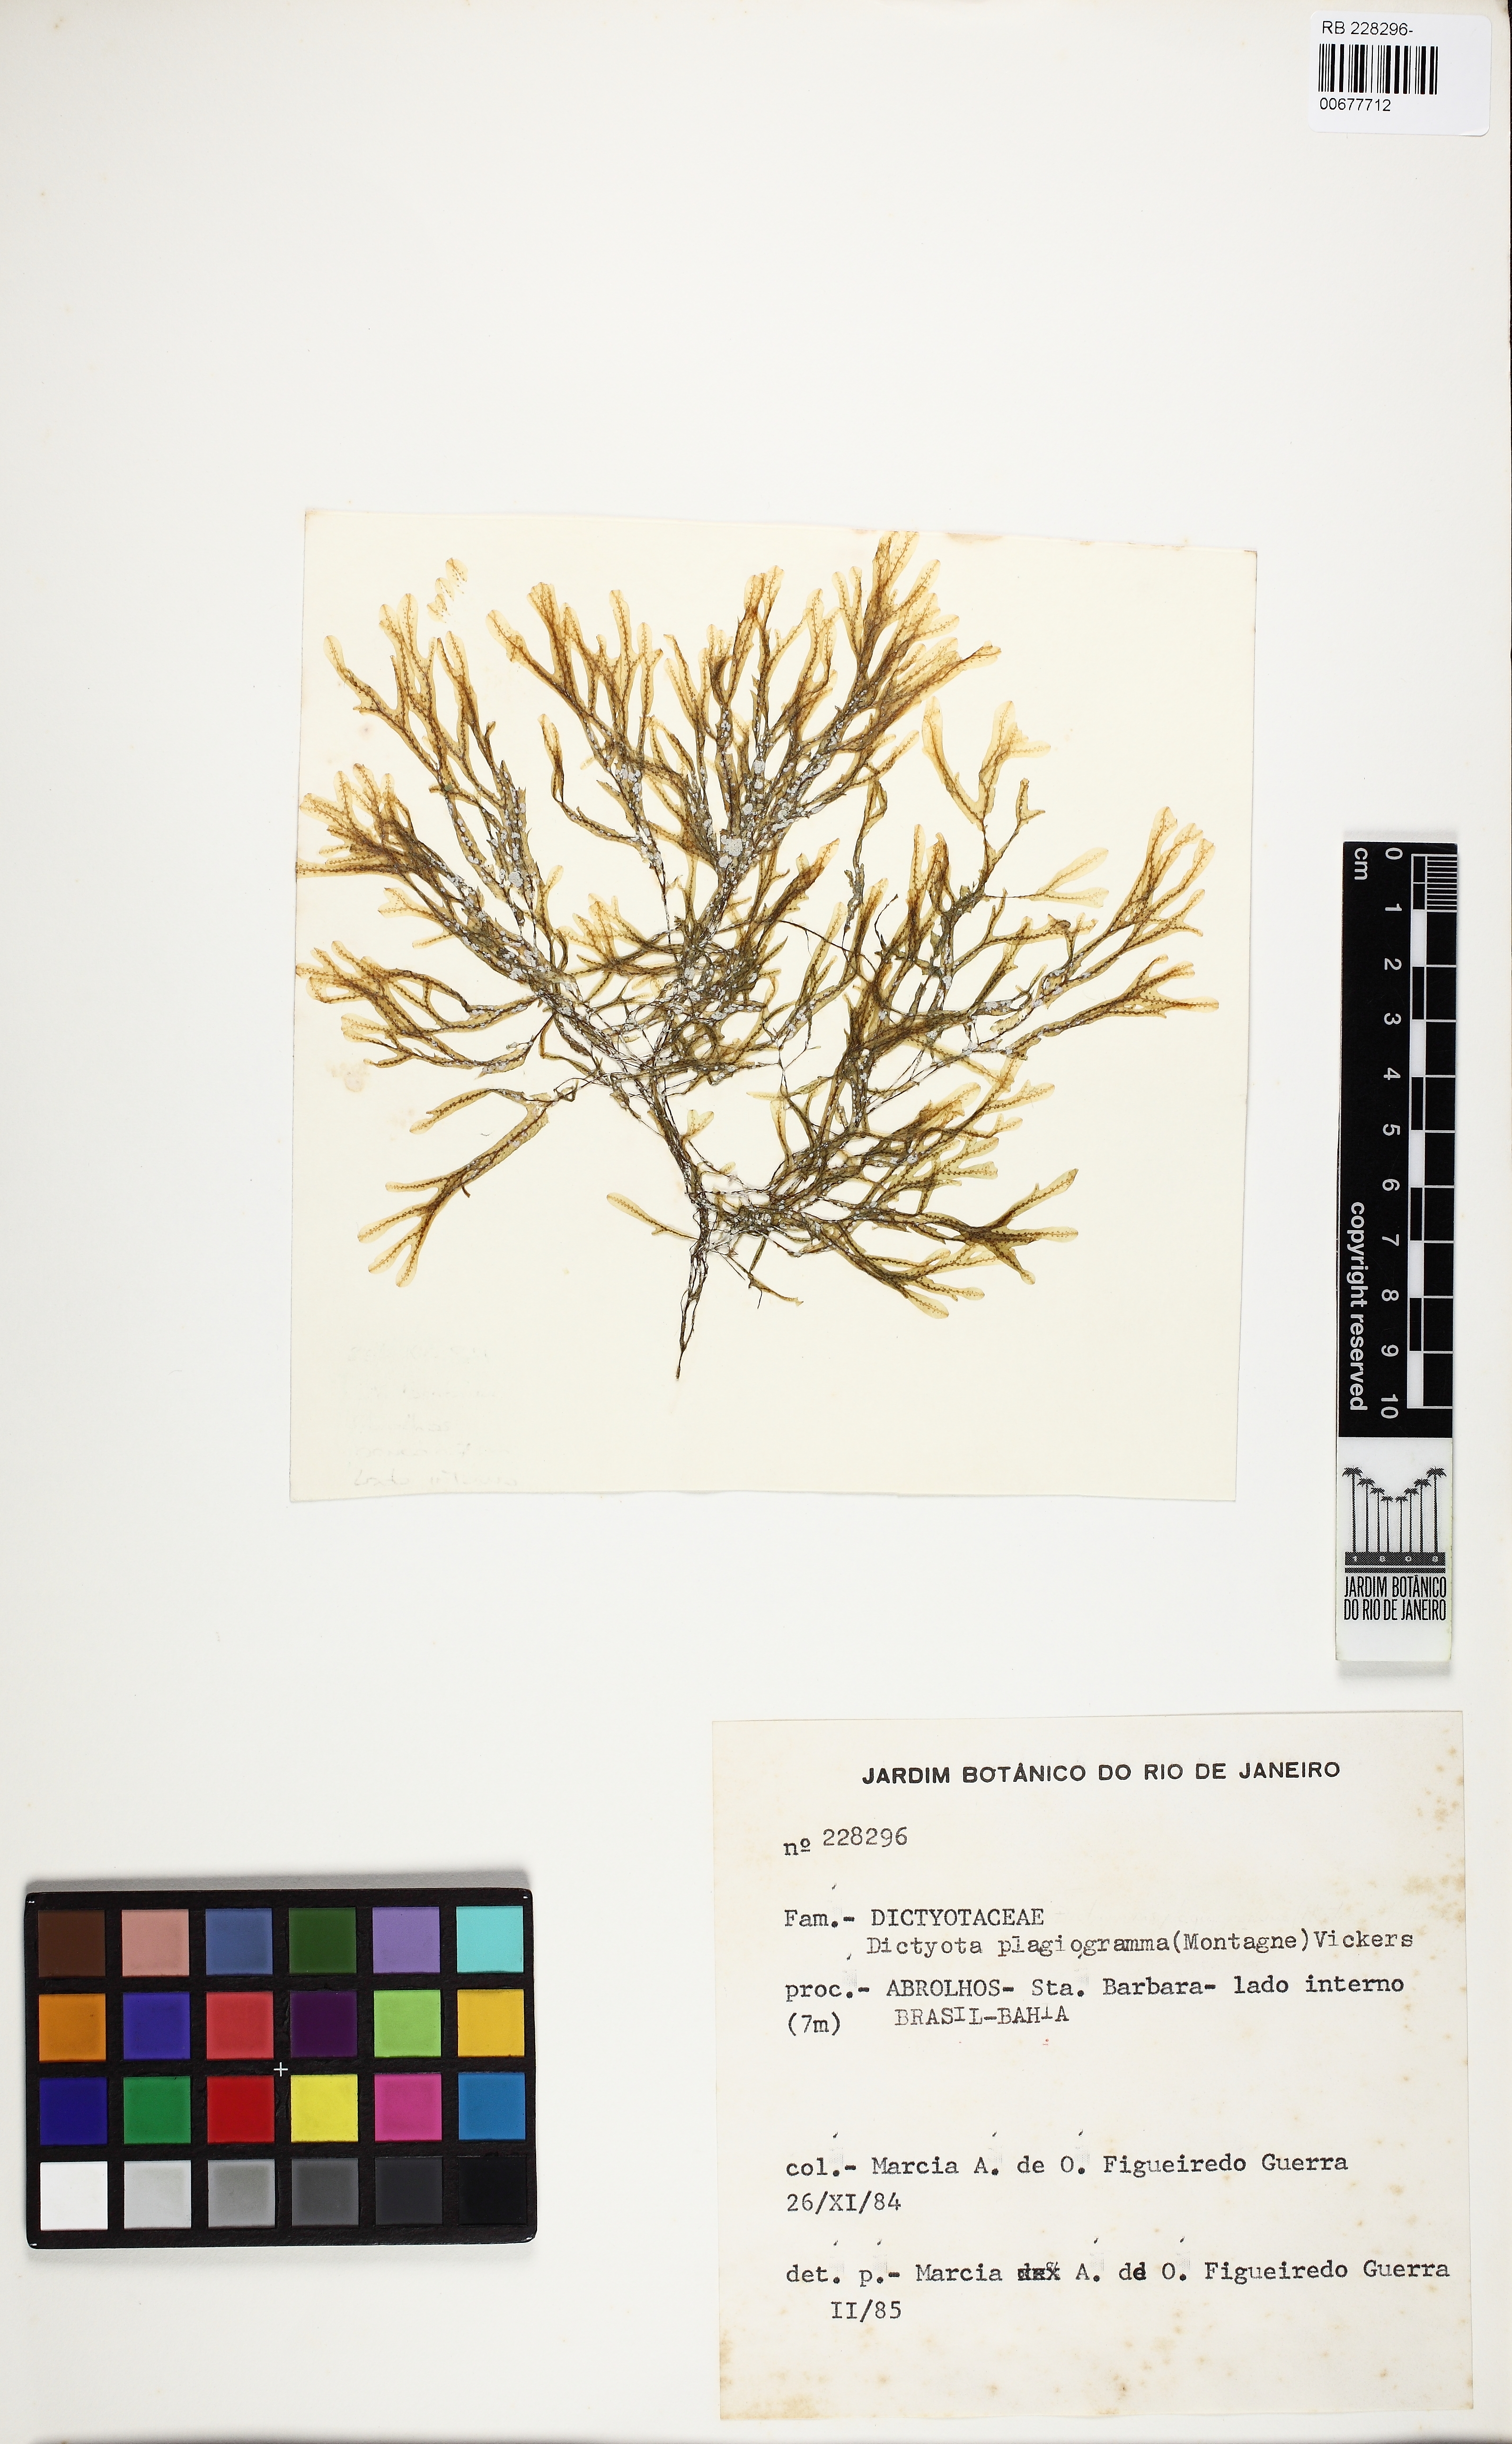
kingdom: Chromista
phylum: Ochrophyta
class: Phaeophyceae
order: Dictyotales
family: Dictyotaceae
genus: Dictyopteris
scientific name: Dictyopteris plagiogramma
